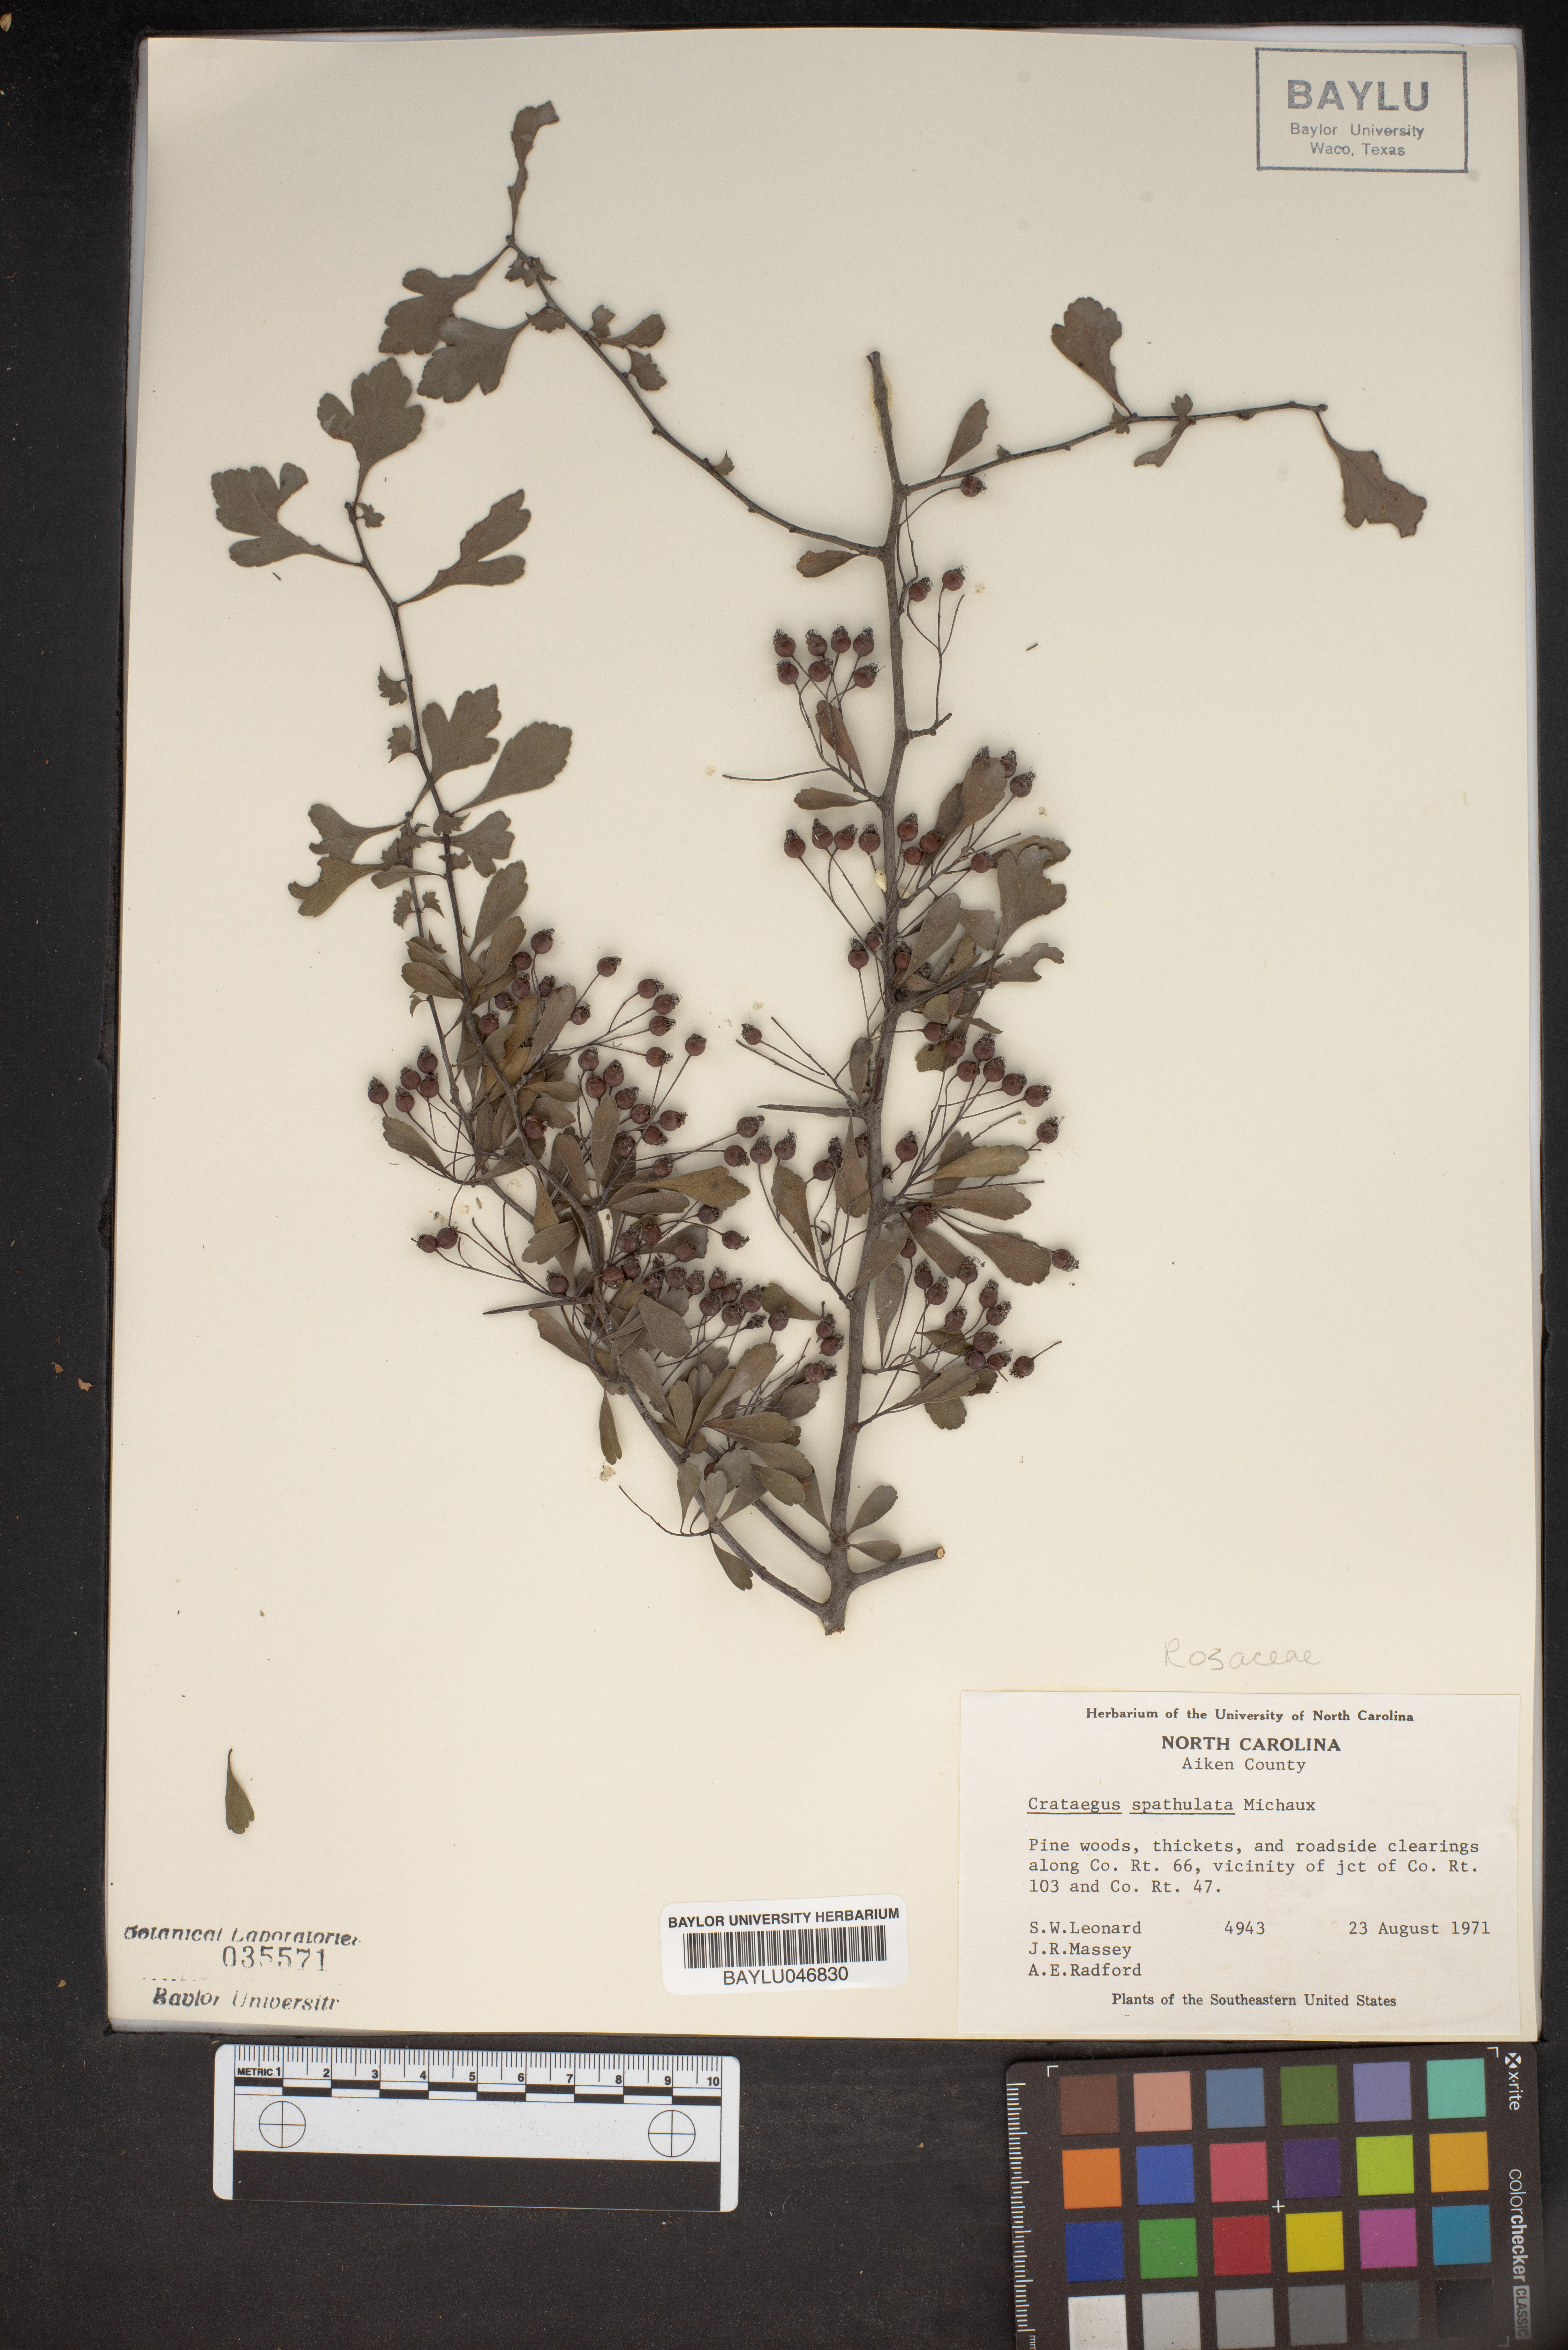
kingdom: Plantae
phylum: Tracheophyta
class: Magnoliopsida
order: Rosales
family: Rosaceae
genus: Crataegus
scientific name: Crataegus spathulata
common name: Littlehip hawthorn
